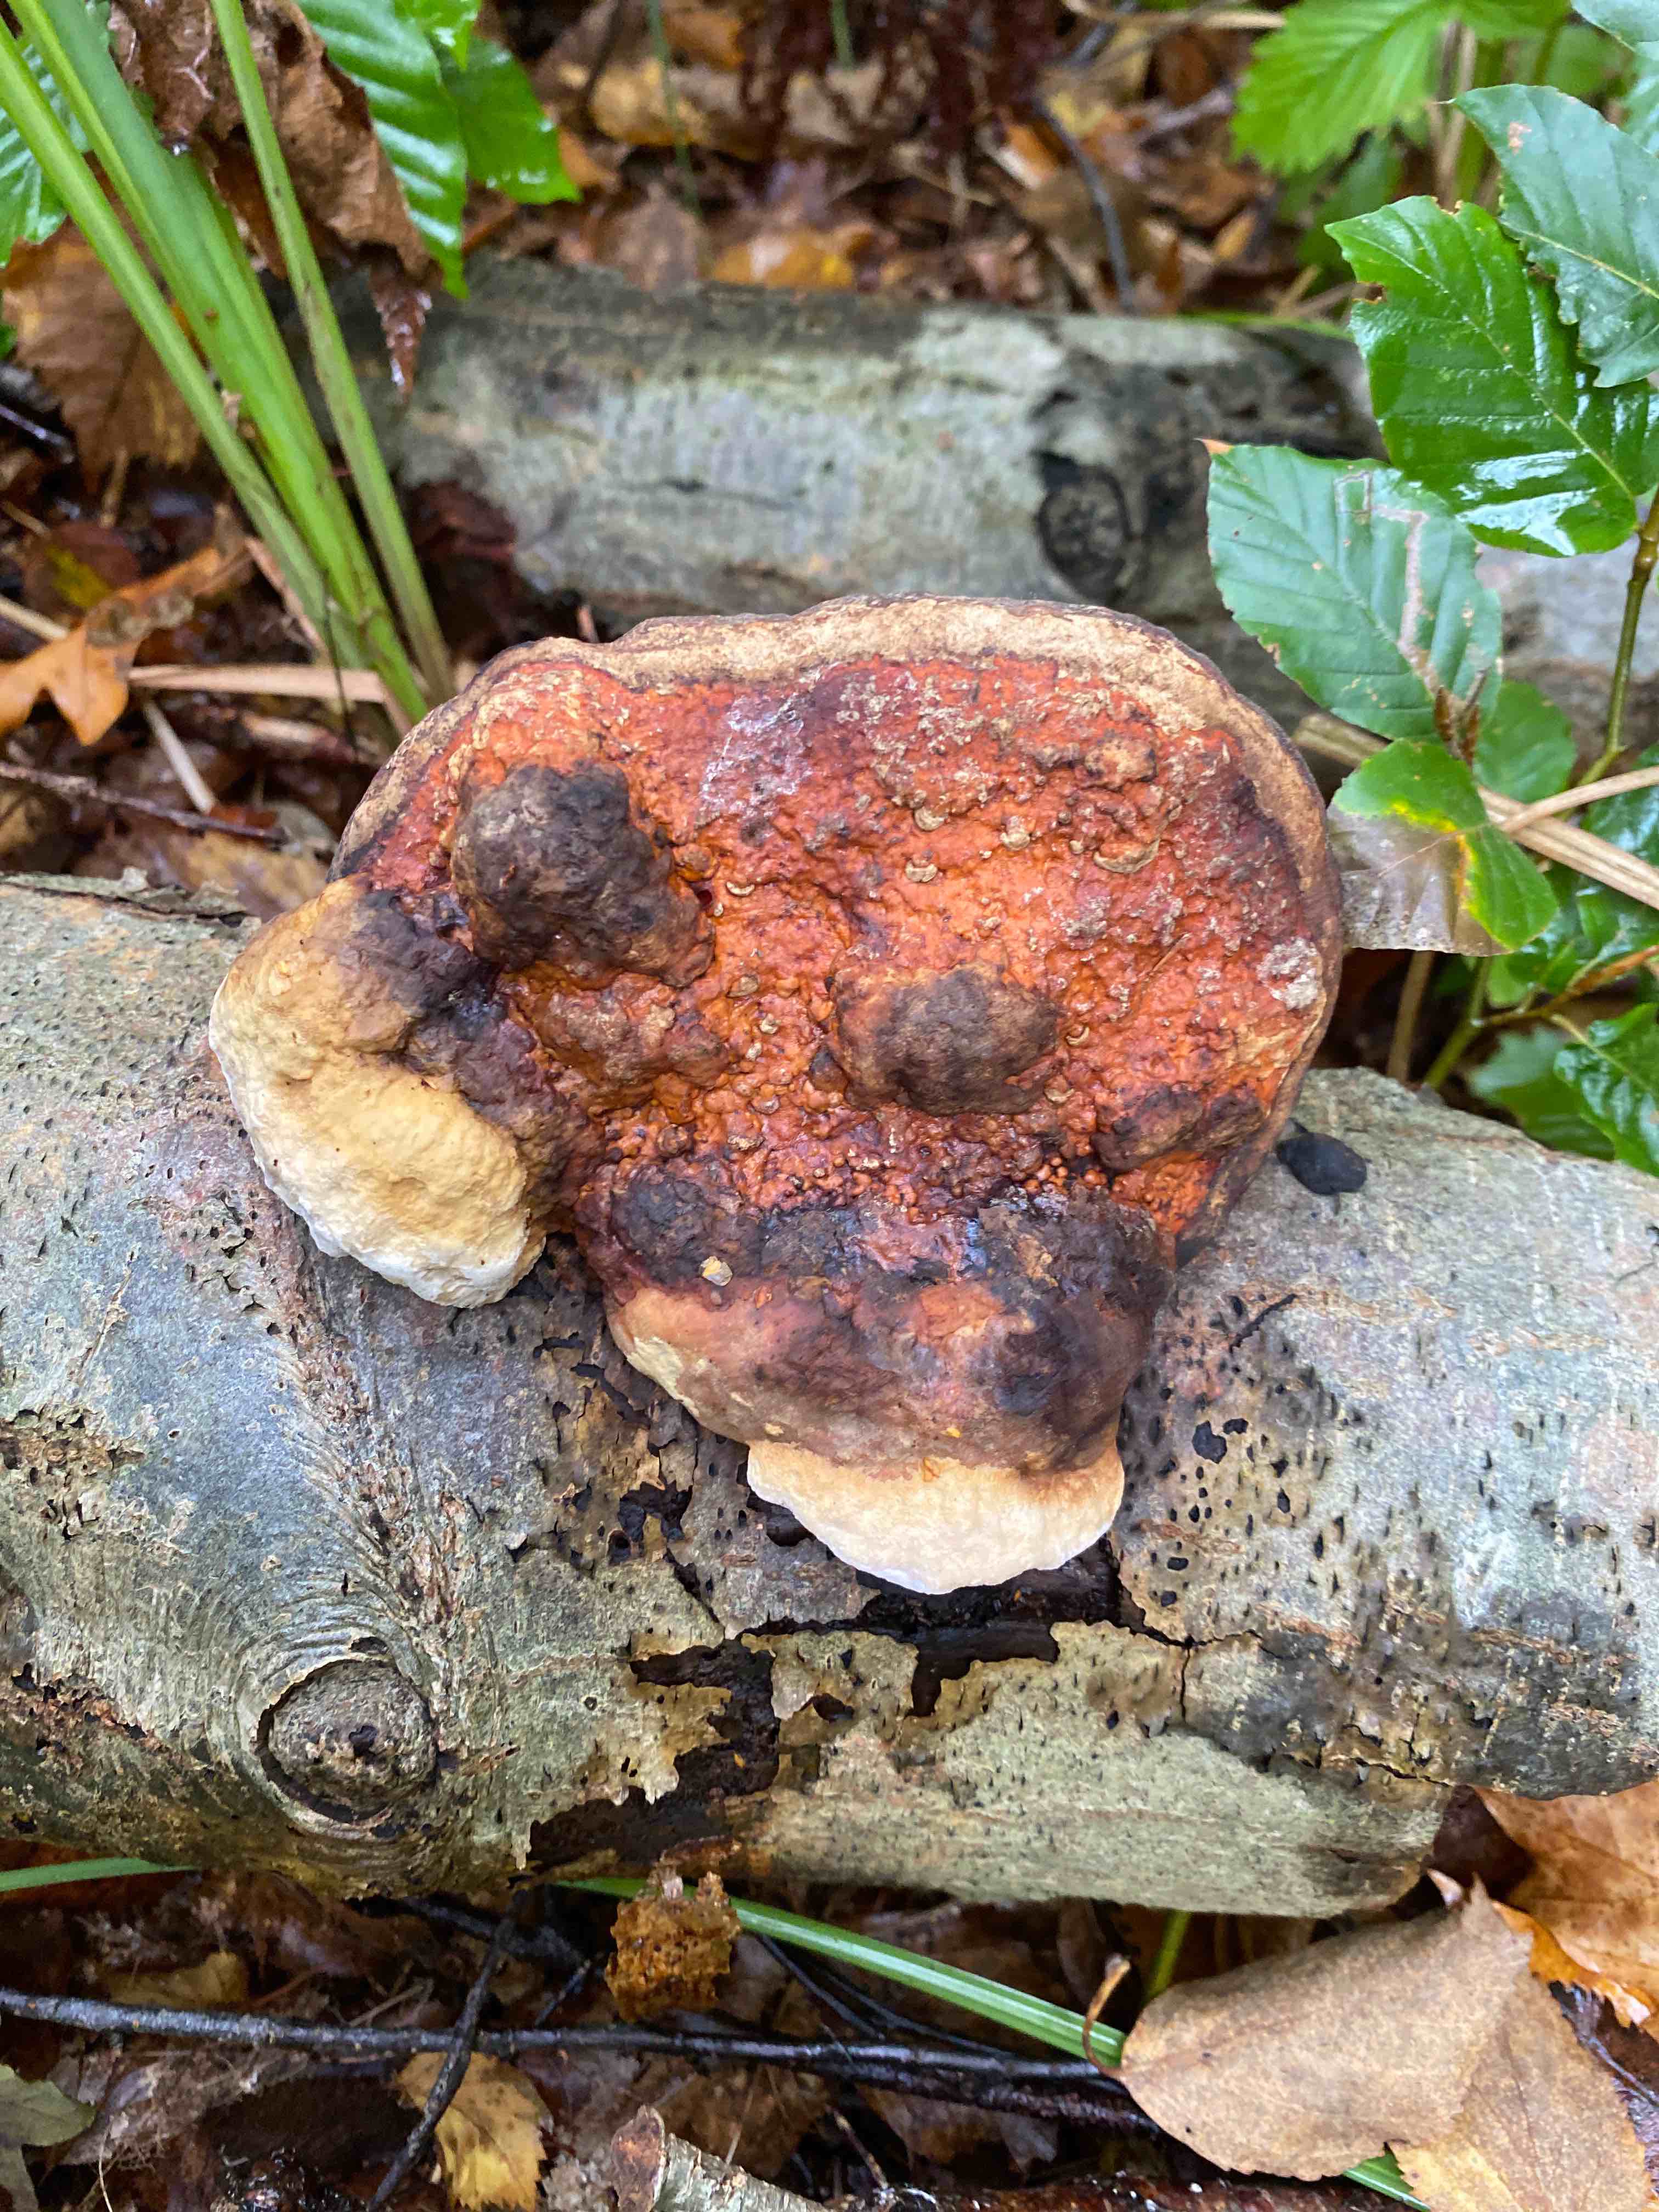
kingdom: Fungi
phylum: Basidiomycota
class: Agaricomycetes
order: Polyporales
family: Fomitopsidaceae
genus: Fomitopsis
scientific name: Fomitopsis pinicola
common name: randbæltet hovporesvamp
